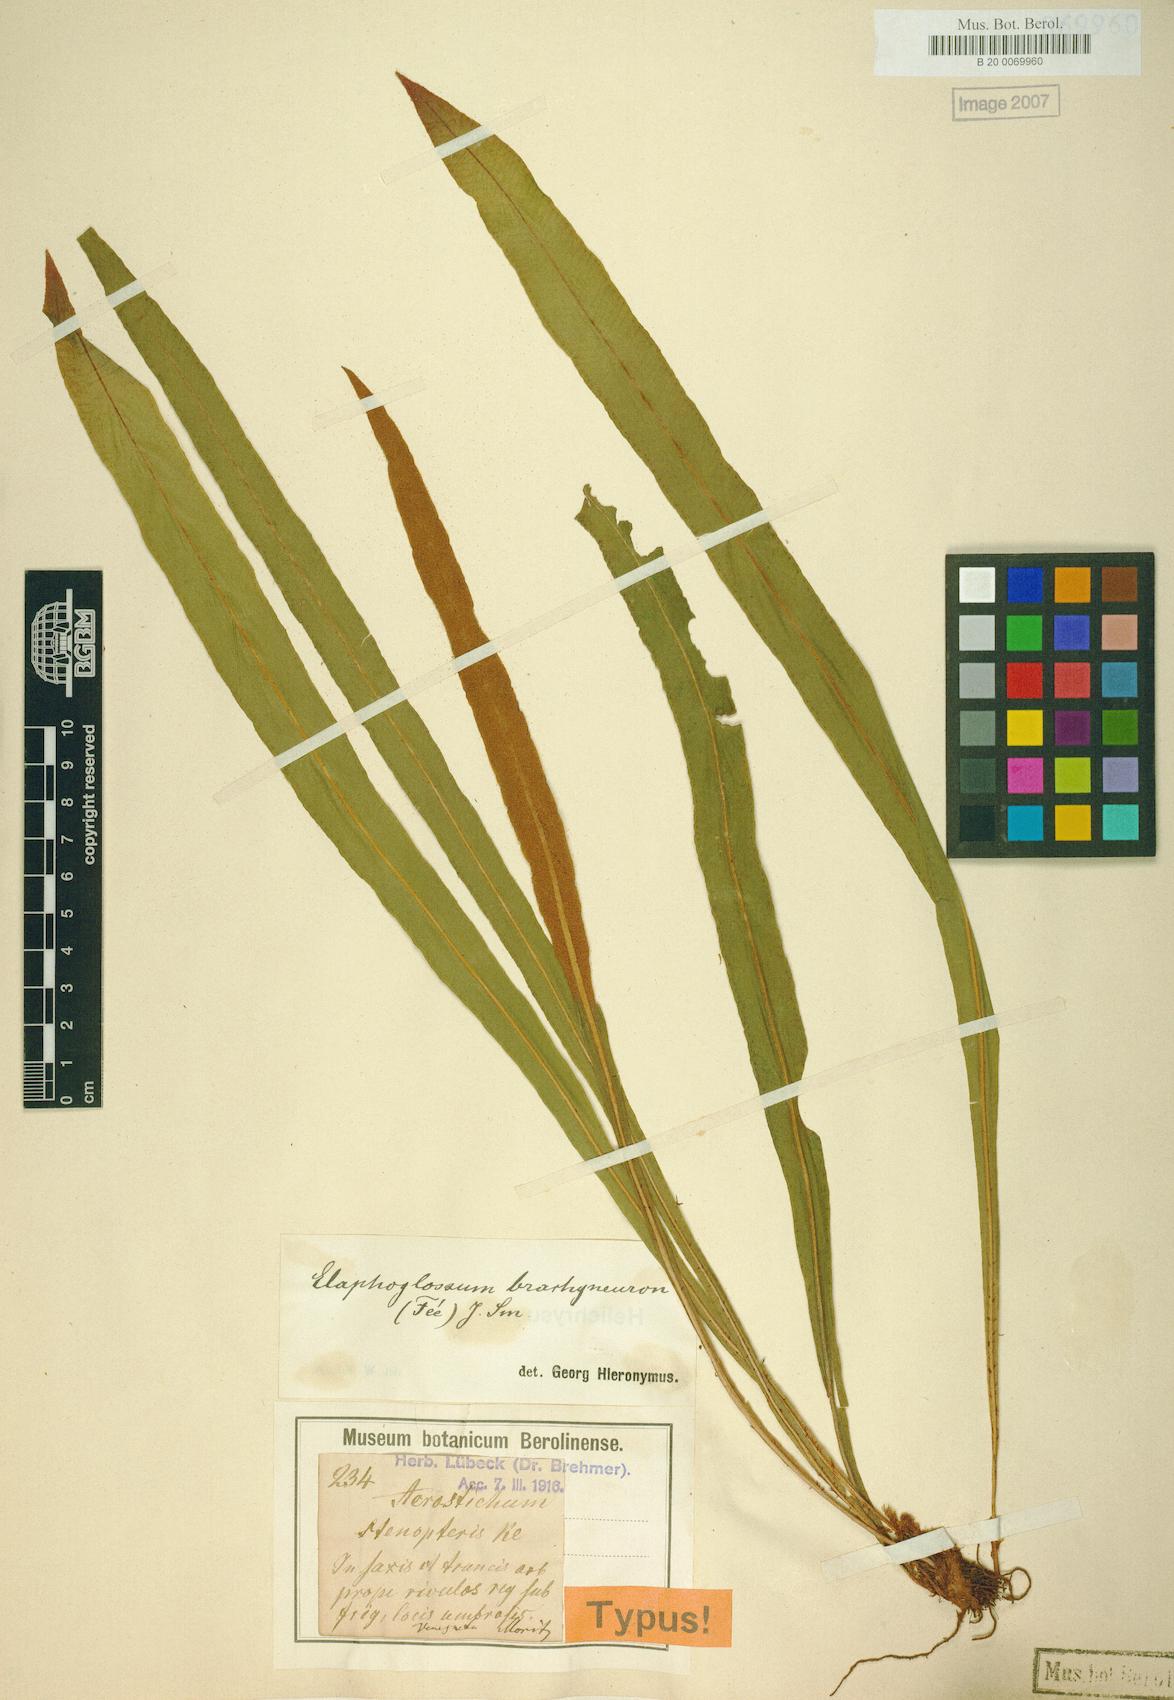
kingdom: Plantae
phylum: Tracheophyta
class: Polypodiopsida
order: Polypodiales
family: Dryopteridaceae
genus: Elaphoglossum
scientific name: Elaphoglossum brachyneuron
